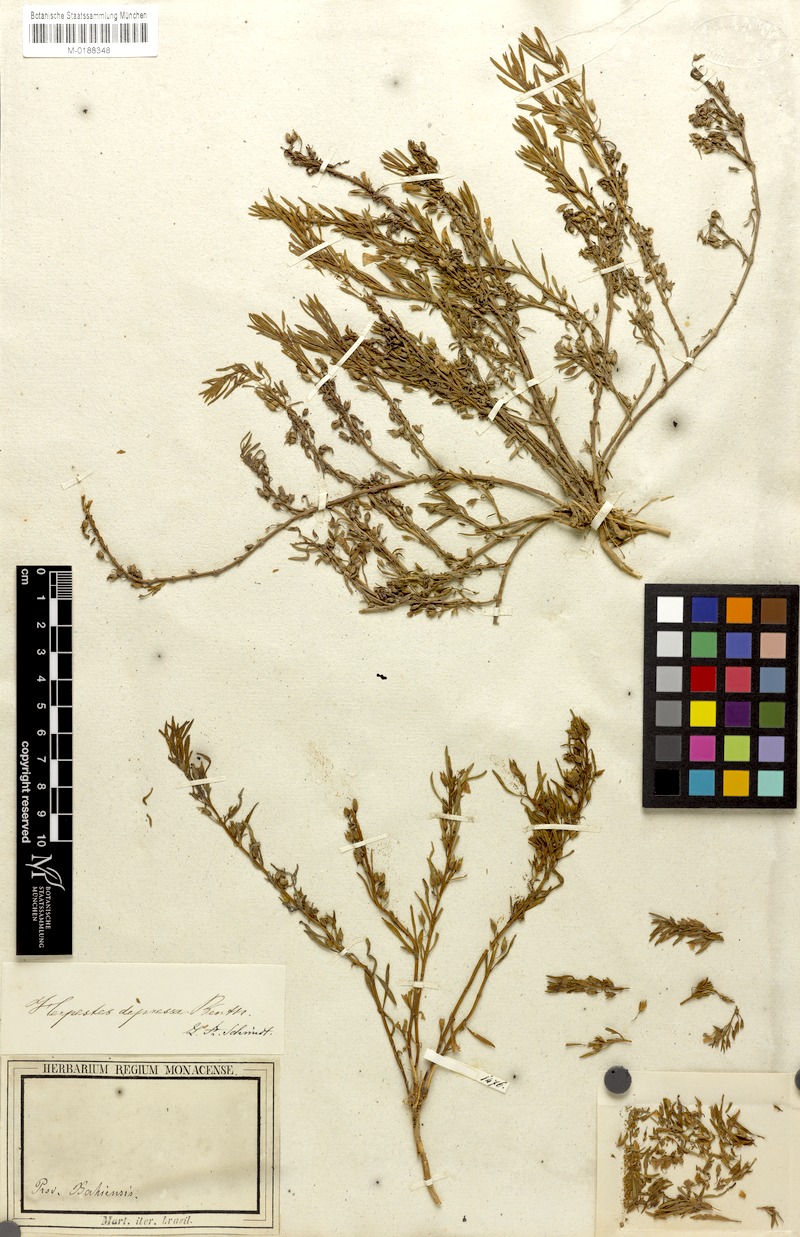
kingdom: Plantae
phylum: Tracheophyta
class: Magnoliopsida
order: Lamiales
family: Plantaginaceae
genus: Bacopa
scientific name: Bacopa depressa
